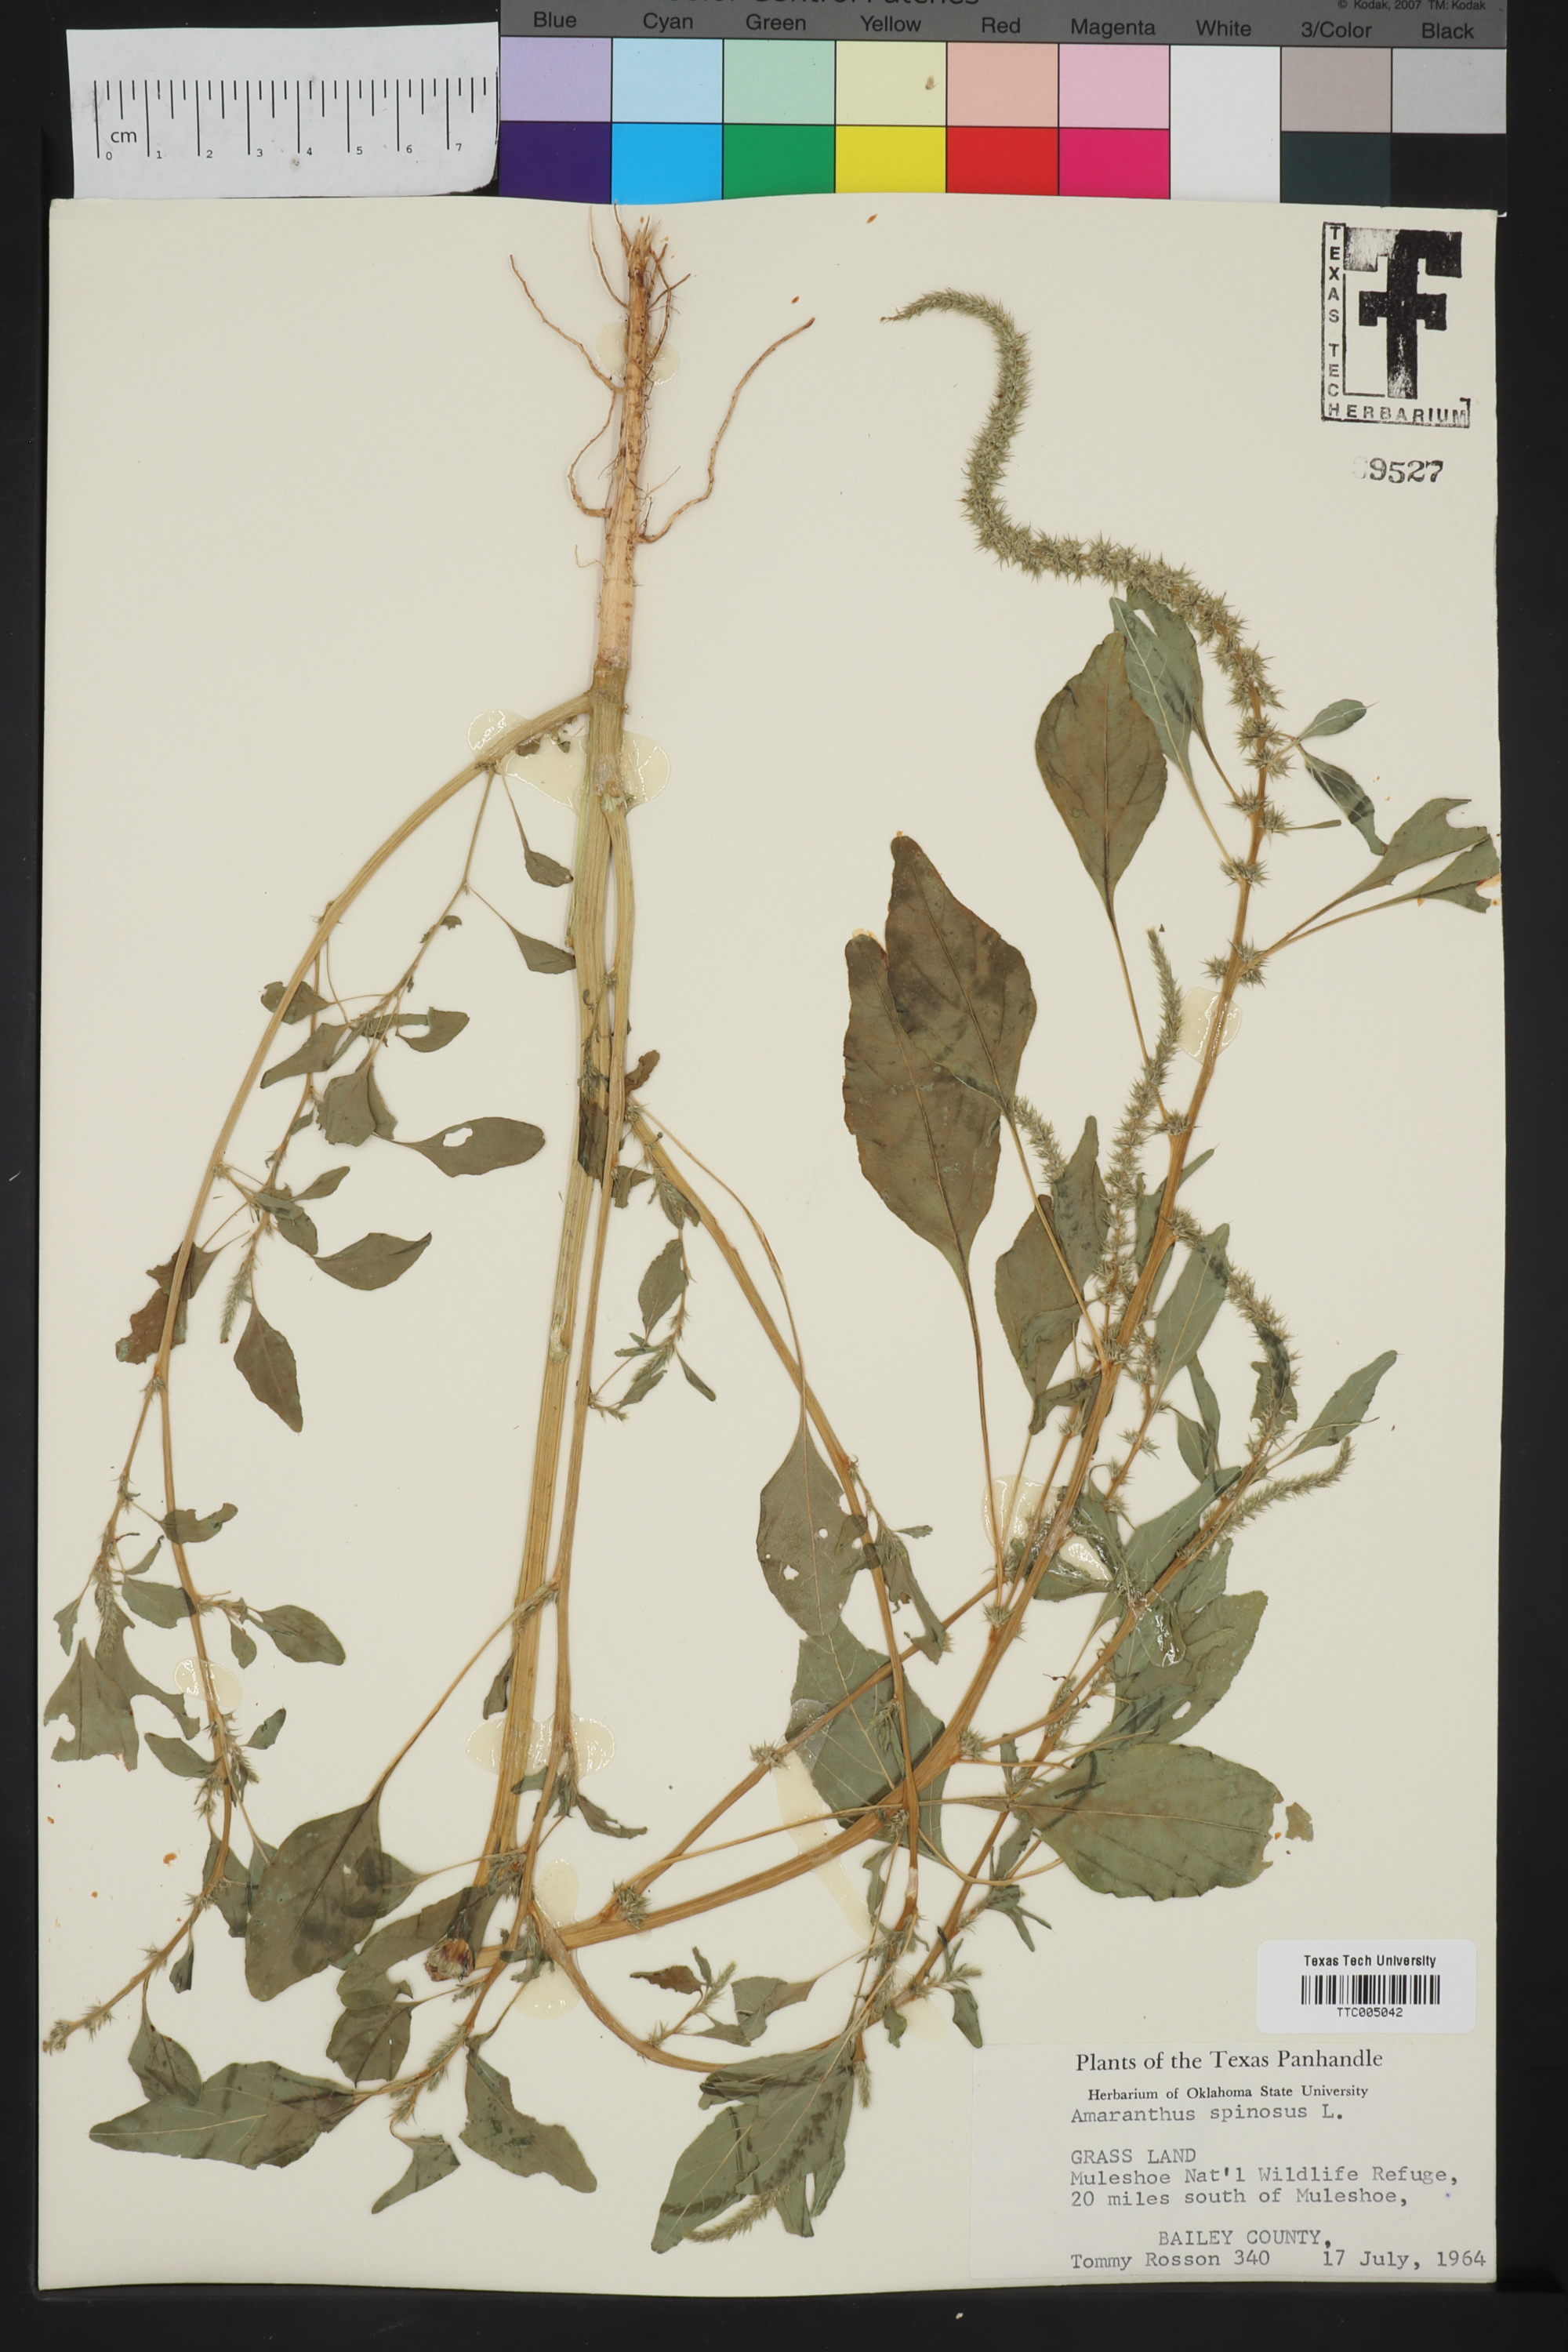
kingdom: Plantae
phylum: Tracheophyta
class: Magnoliopsida
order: Caryophyllales
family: Amaranthaceae
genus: Amaranthus
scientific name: Amaranthus spinosus
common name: Spiny amaranth
